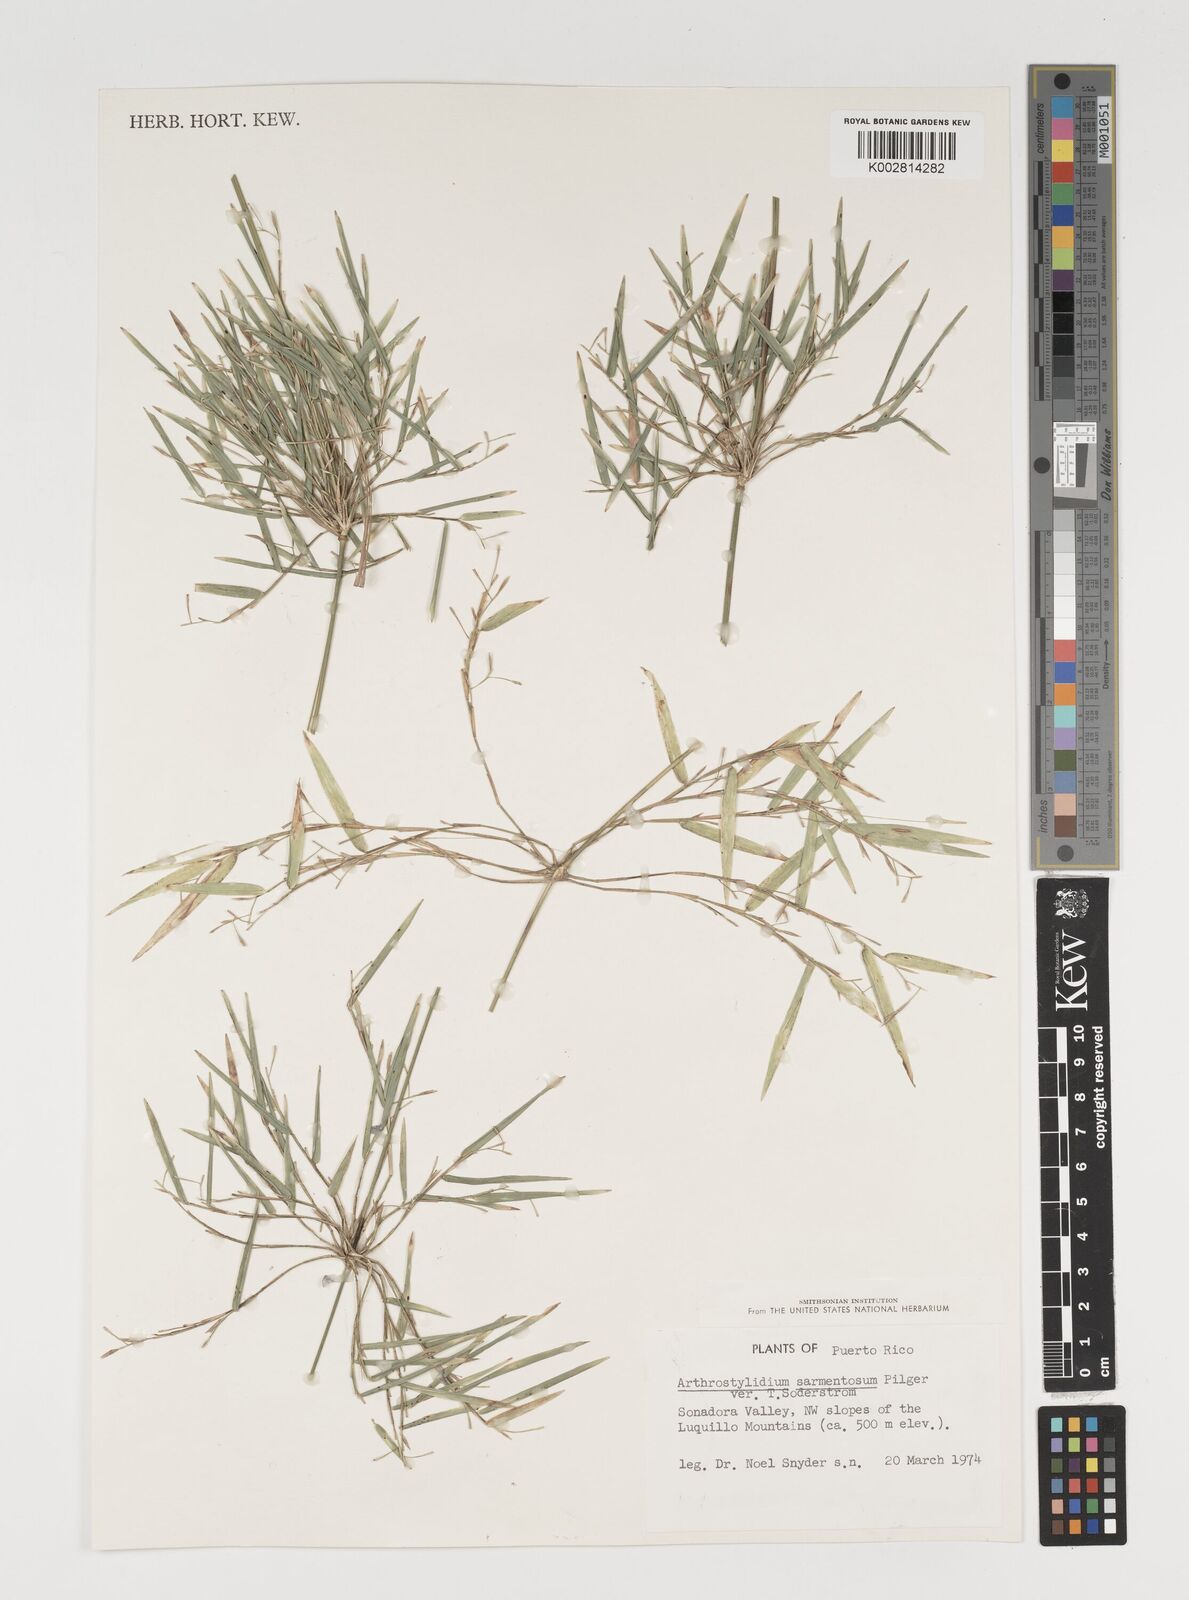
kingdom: Plantae
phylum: Tracheophyta
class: Liliopsida
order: Poales
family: Poaceae
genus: Arthrostylidium
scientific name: Arthrostylidium sarmentosum
